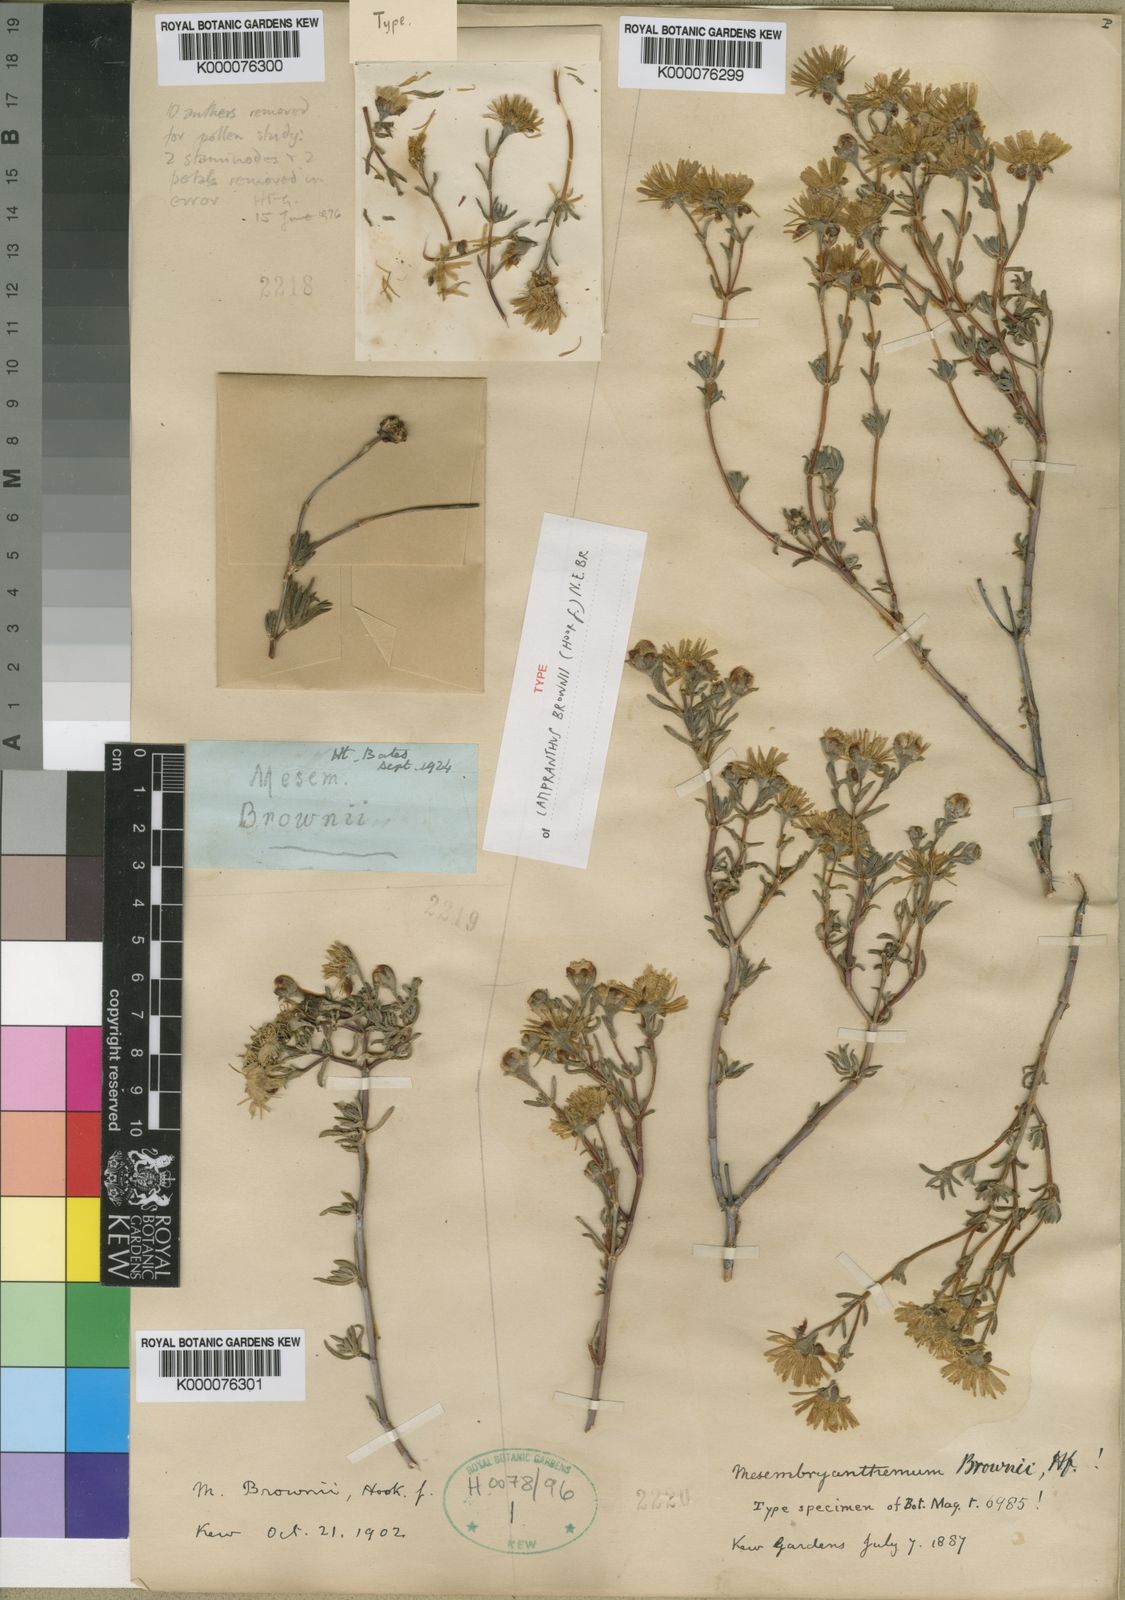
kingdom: Plantae
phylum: Tracheophyta
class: Magnoliopsida
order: Caryophyllales
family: Aizoaceae
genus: Lampranthus
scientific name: Lampranthus brownii
